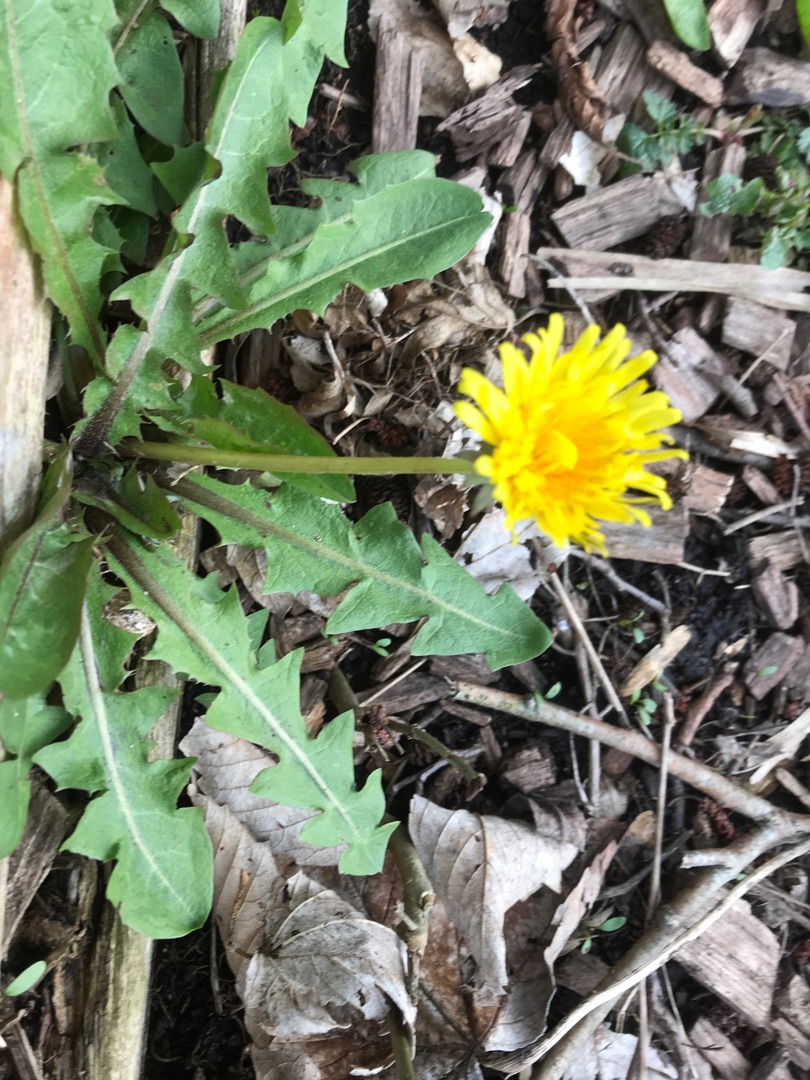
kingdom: Plantae
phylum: Tracheophyta
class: Magnoliopsida
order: Asterales
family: Asteraceae
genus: Taraxacum
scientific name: Taraxacum
